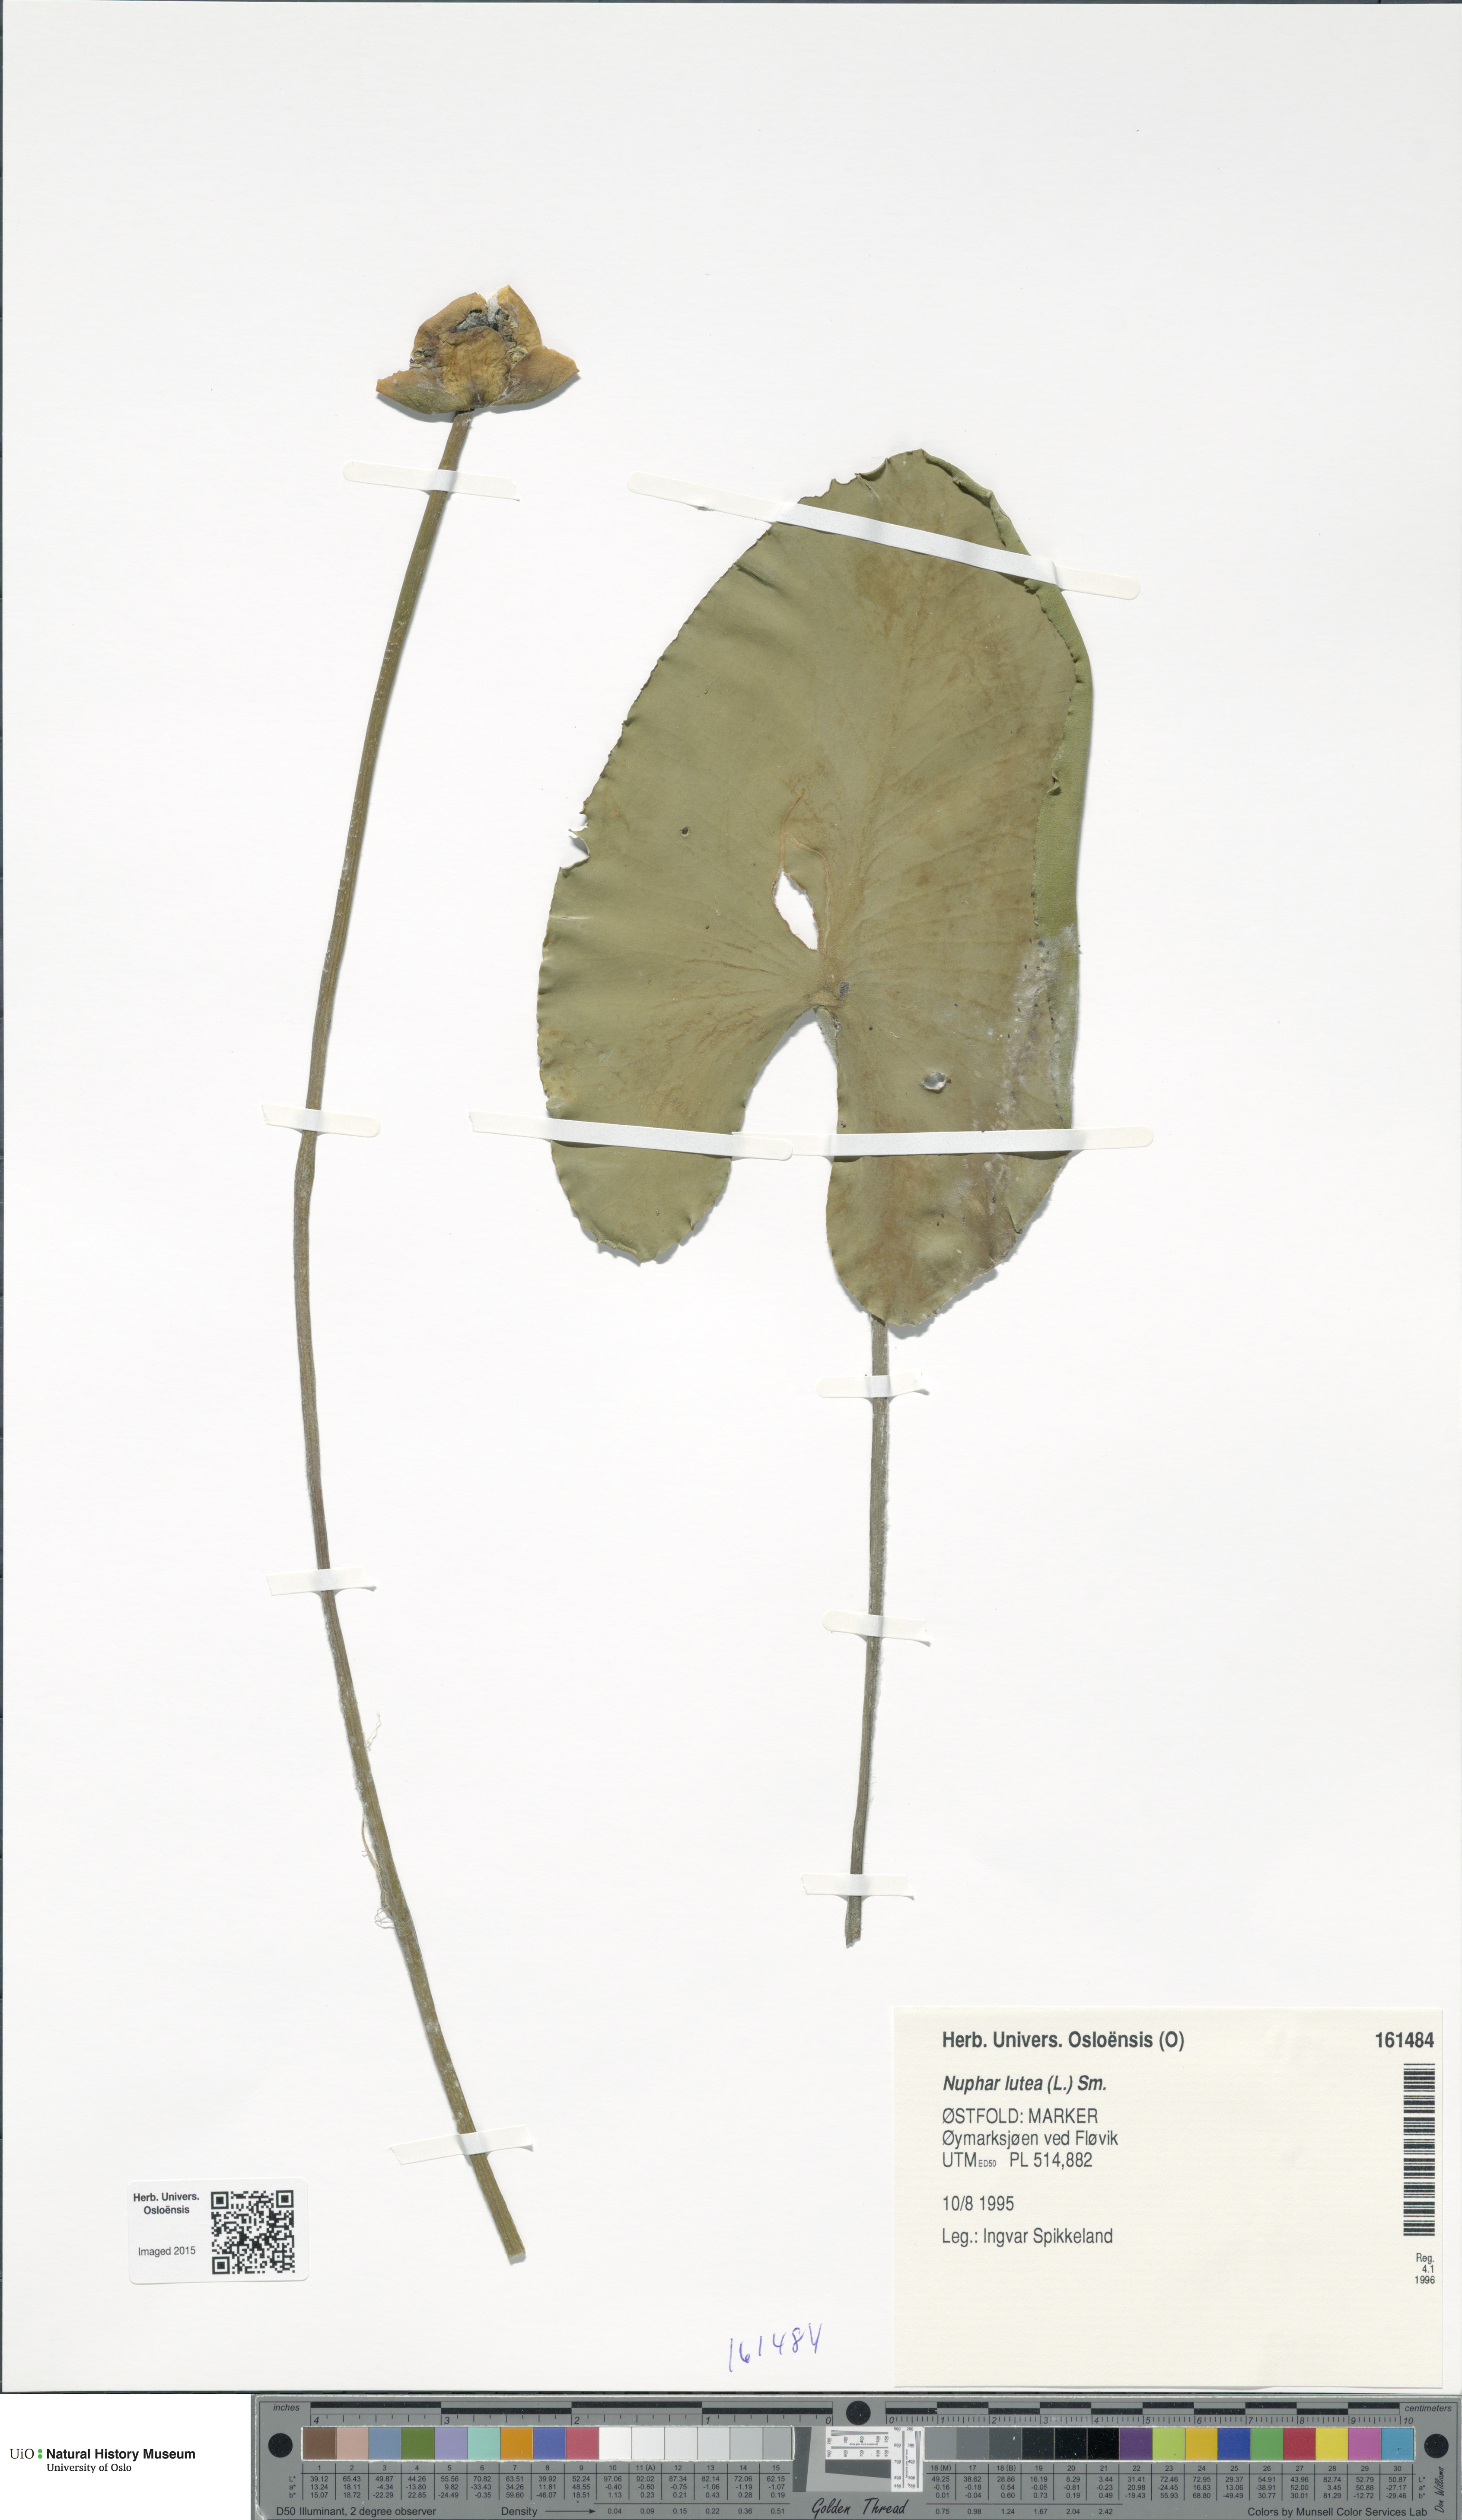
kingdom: Plantae
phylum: Tracheophyta
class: Magnoliopsida
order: Nymphaeales
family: Nymphaeaceae
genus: Nuphar
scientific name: Nuphar lutea
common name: Yellow water-lily
